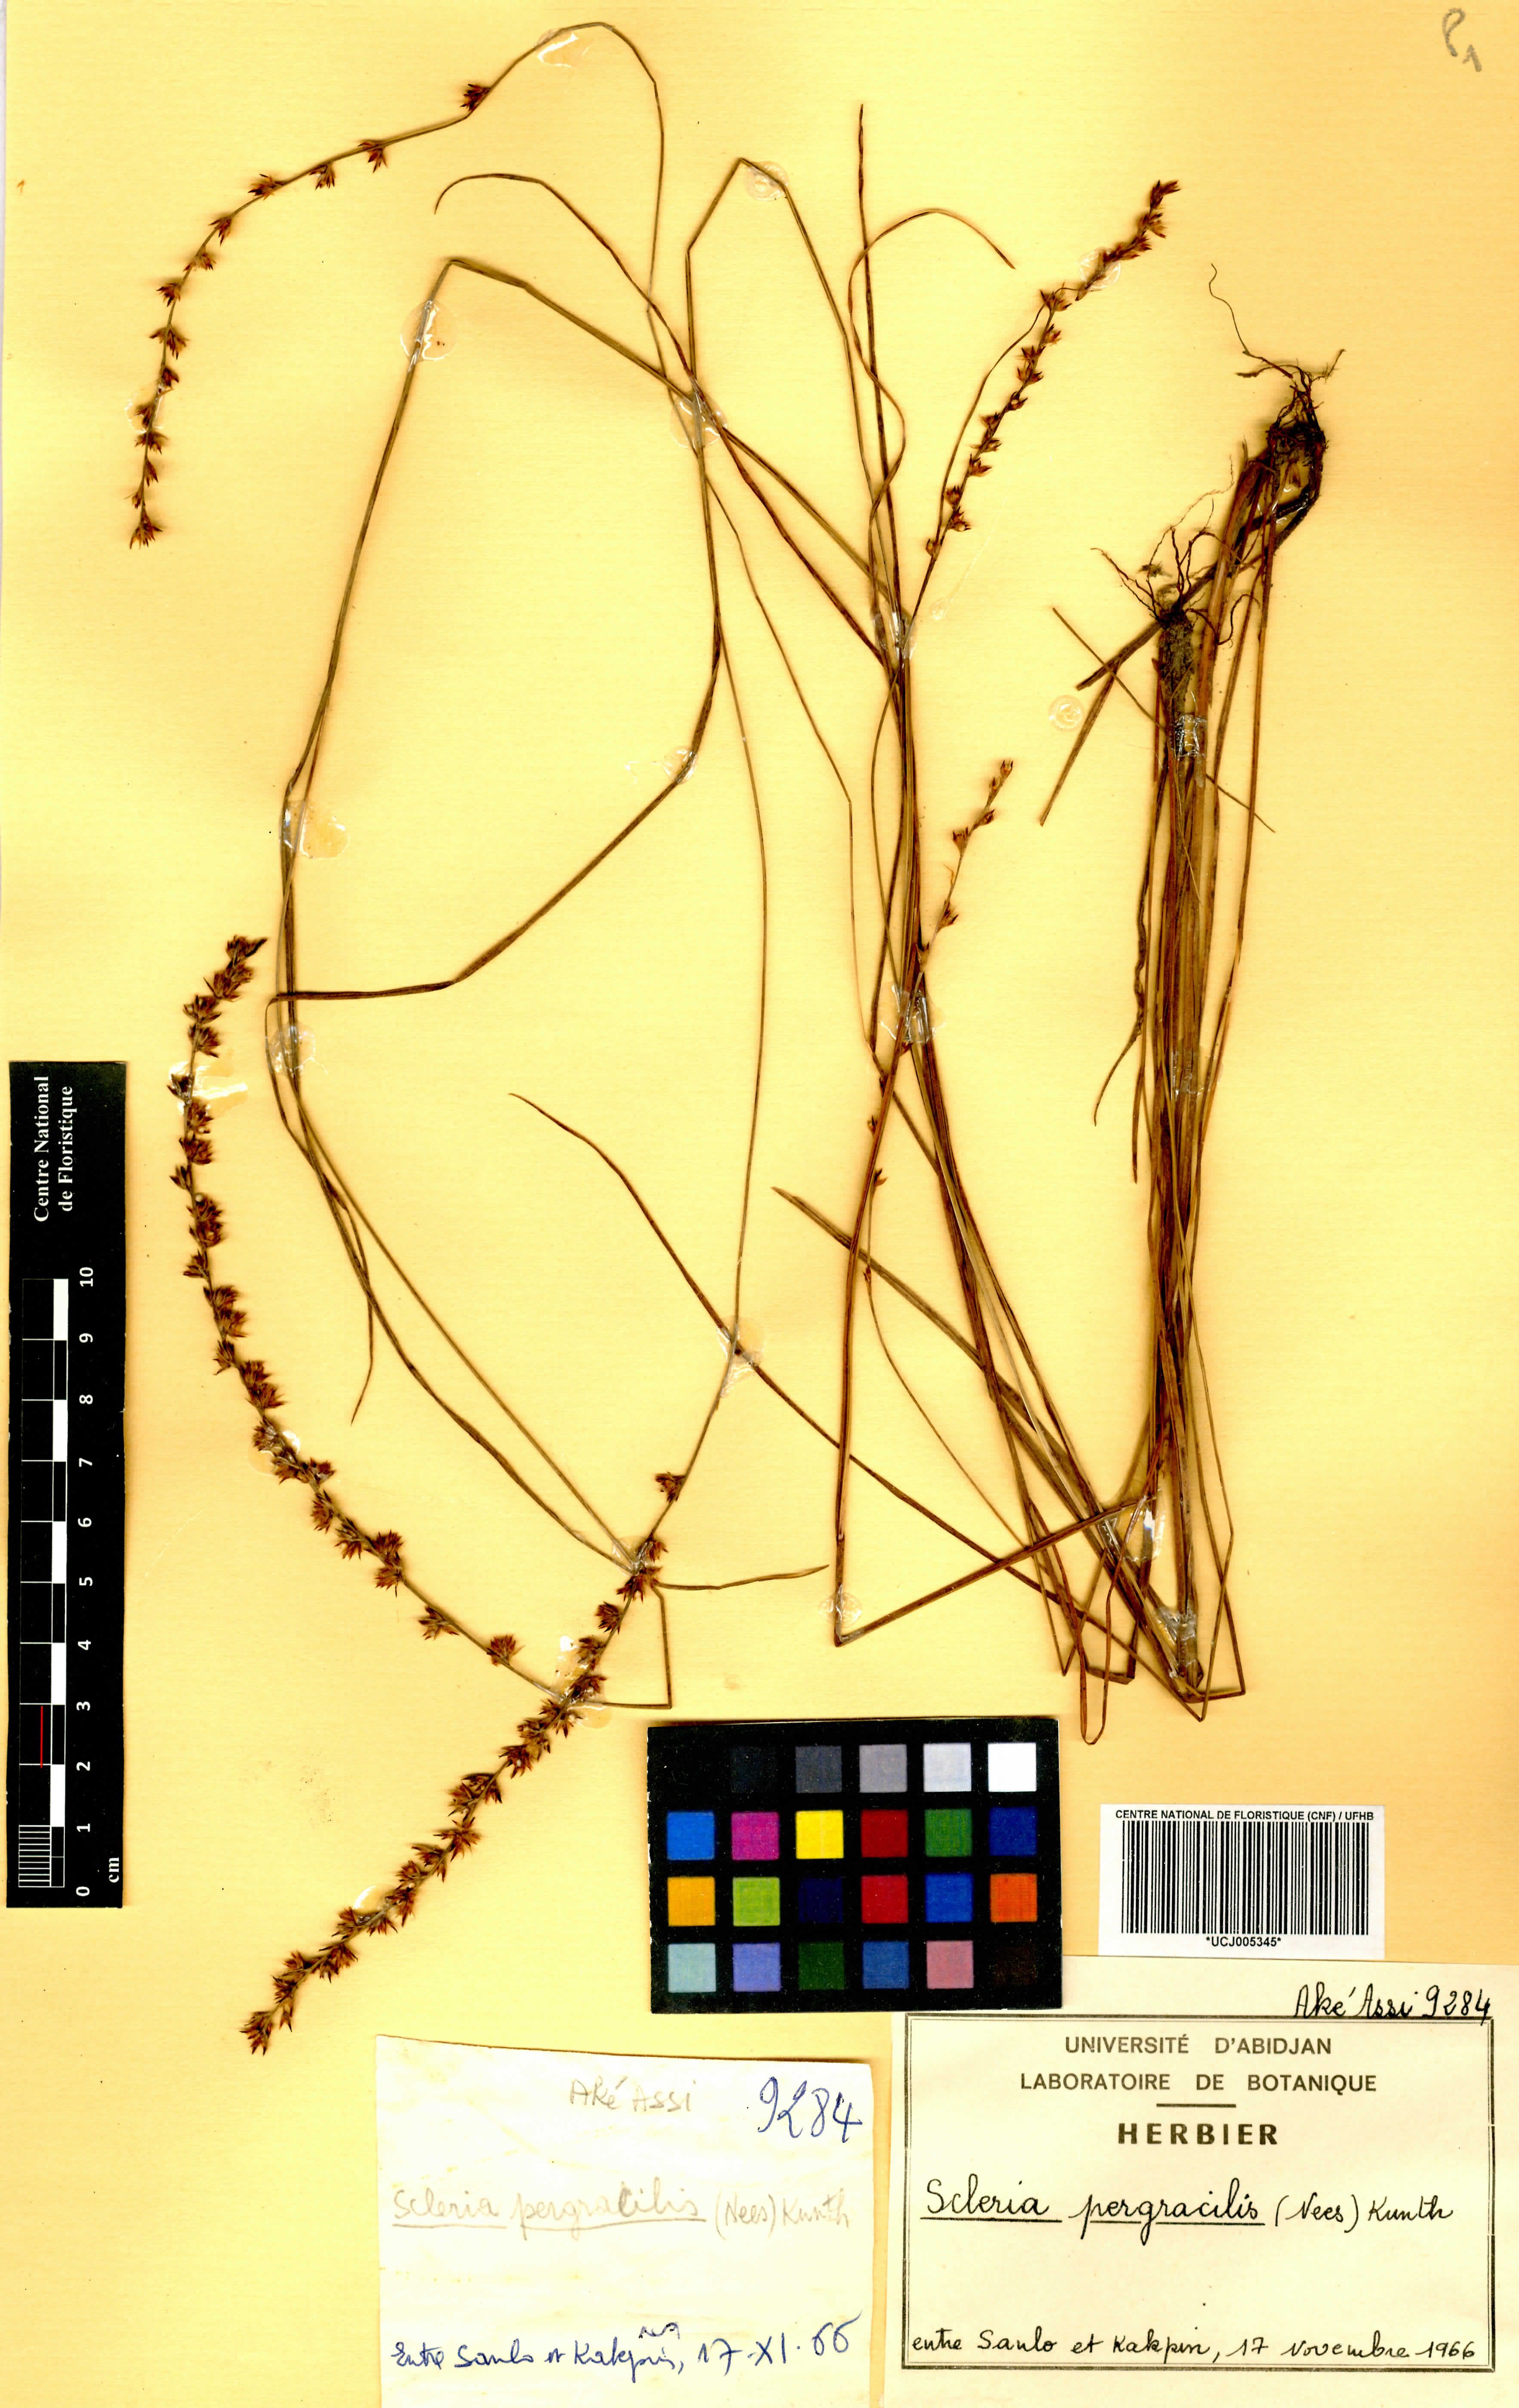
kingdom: Plantae
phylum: Tracheophyta
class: Liliopsida
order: Poales
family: Cyperaceae
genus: Scleria
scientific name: Scleria pergracilis
